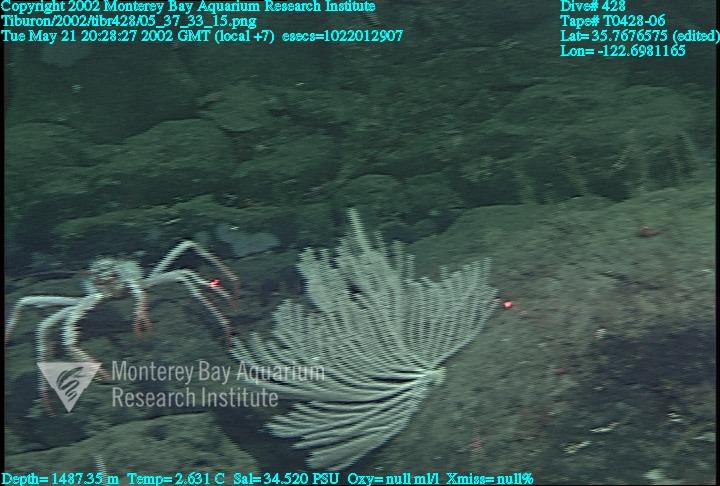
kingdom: Animalia
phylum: Porifera
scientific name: Porifera
